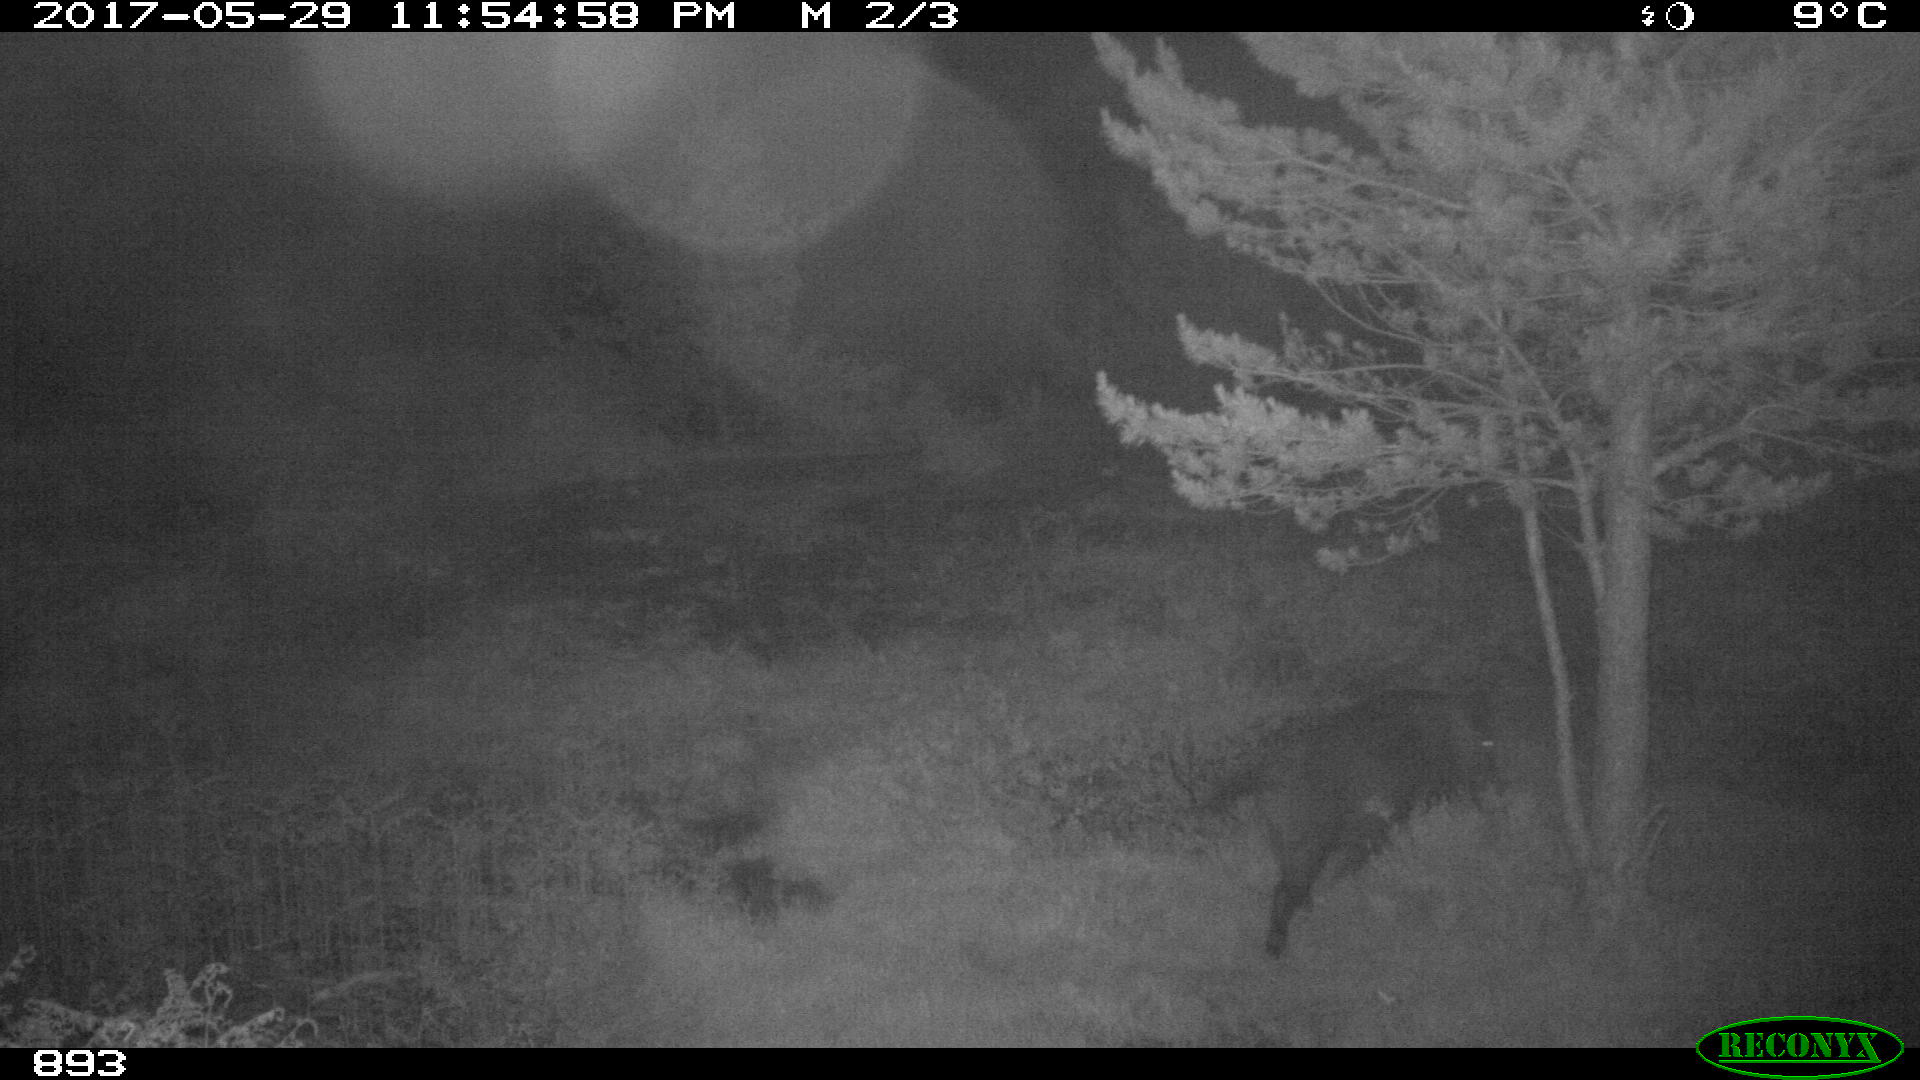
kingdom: Animalia
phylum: Chordata
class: Mammalia
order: Artiodactyla
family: Suidae
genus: Sus
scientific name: Sus scrofa
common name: Wild boar
